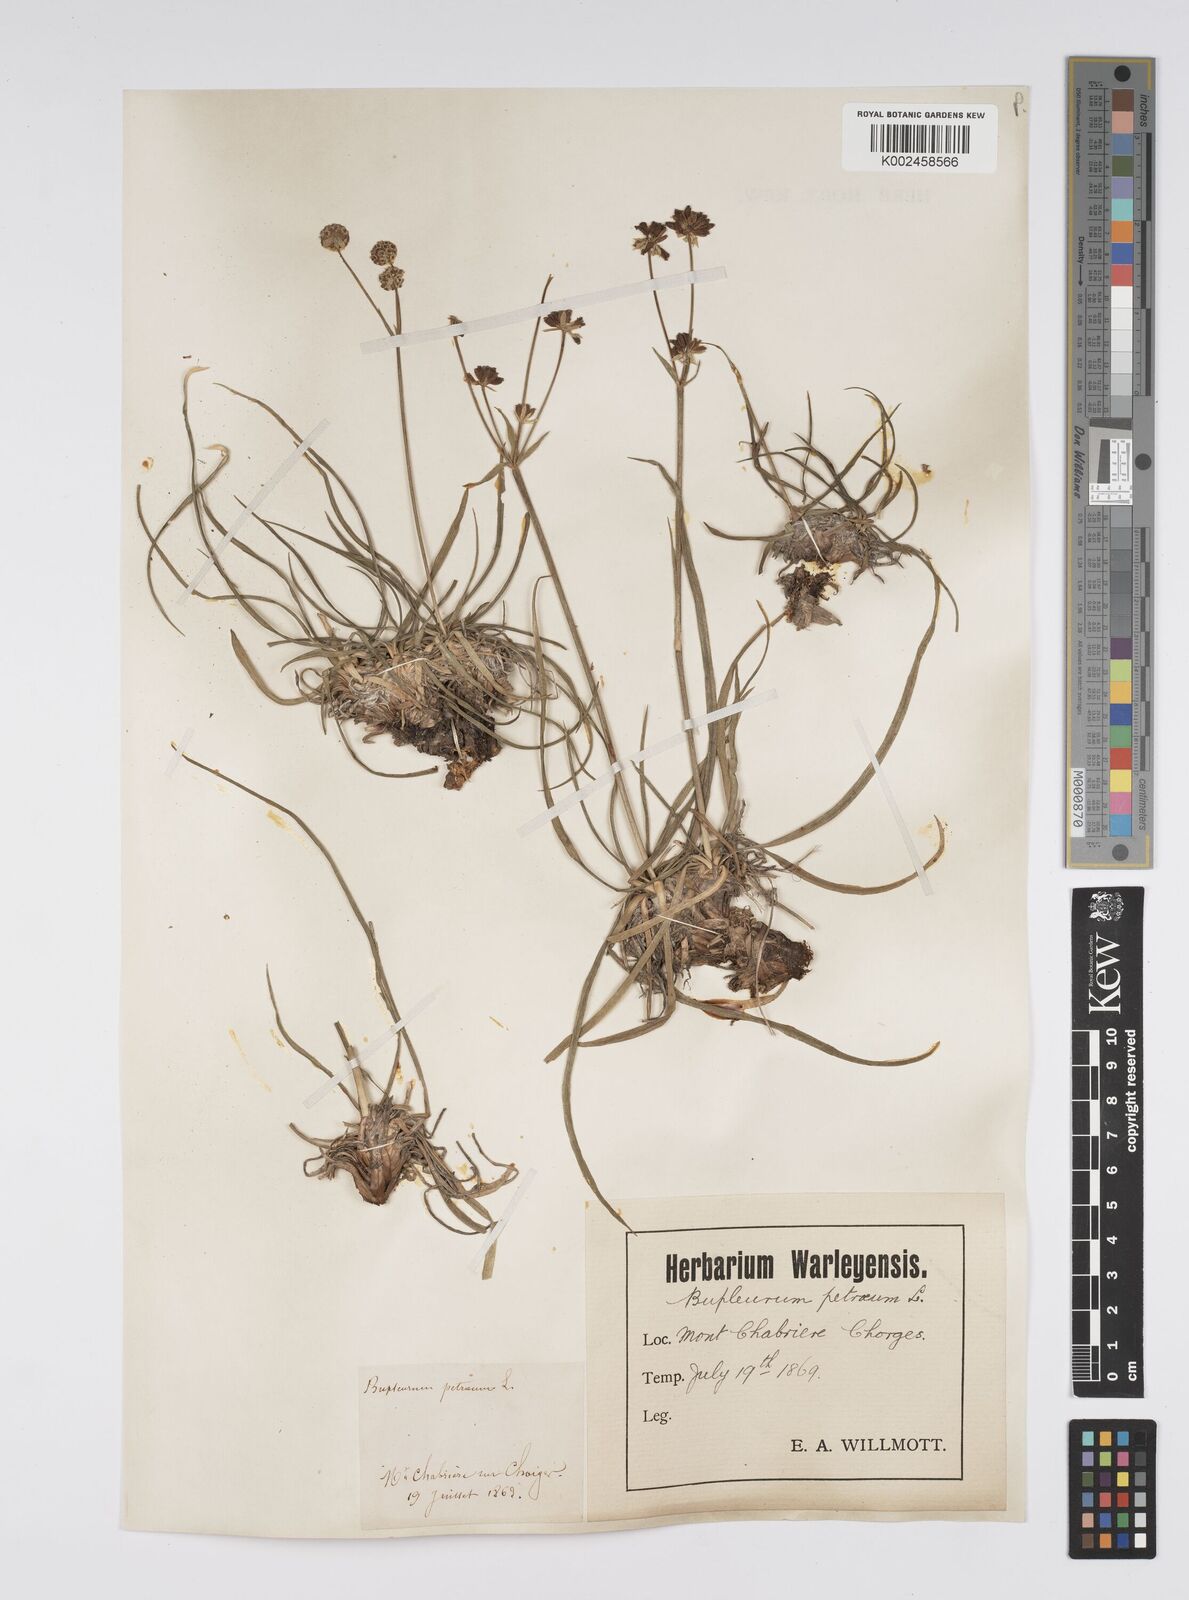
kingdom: Plantae
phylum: Tracheophyta
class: Magnoliopsida
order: Apiales
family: Apiaceae
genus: Bupleurum
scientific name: Bupleurum petraeum
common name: Rock hare's-ear
